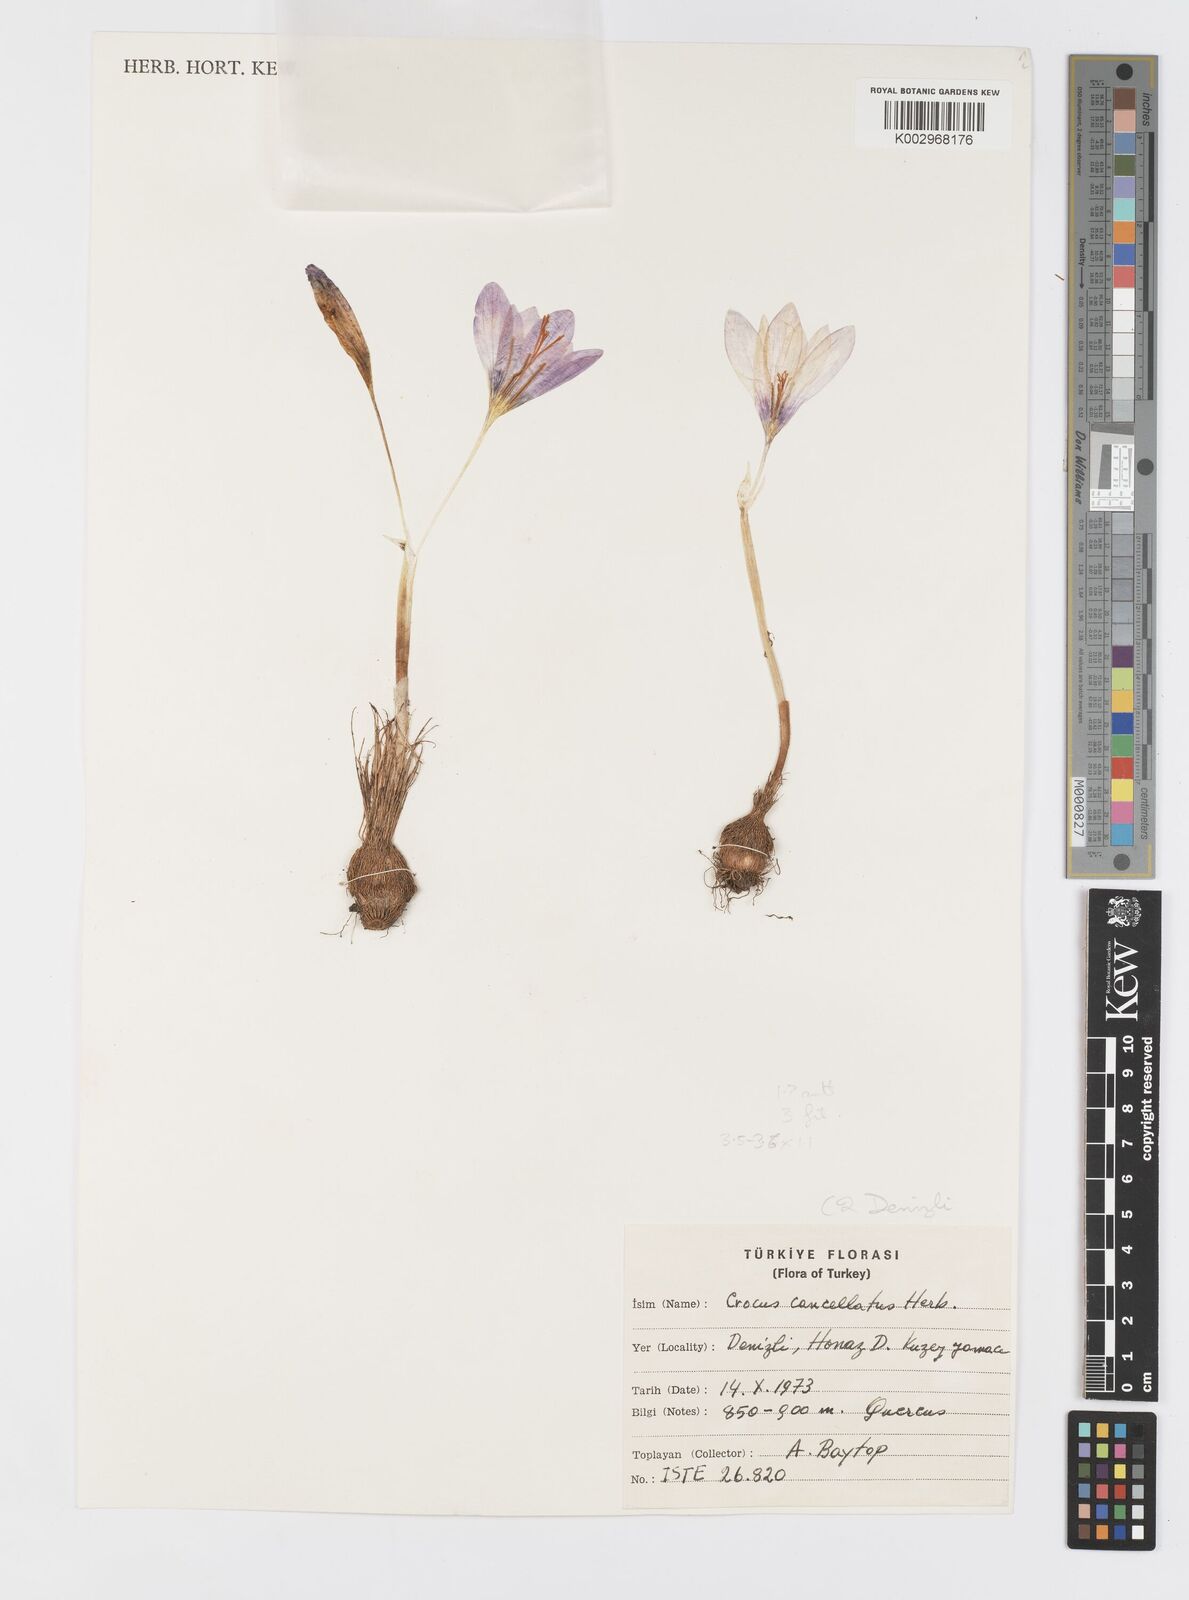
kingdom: Plantae
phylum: Tracheophyta
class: Liliopsida
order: Asparagales
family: Iridaceae
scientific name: Iridaceae
